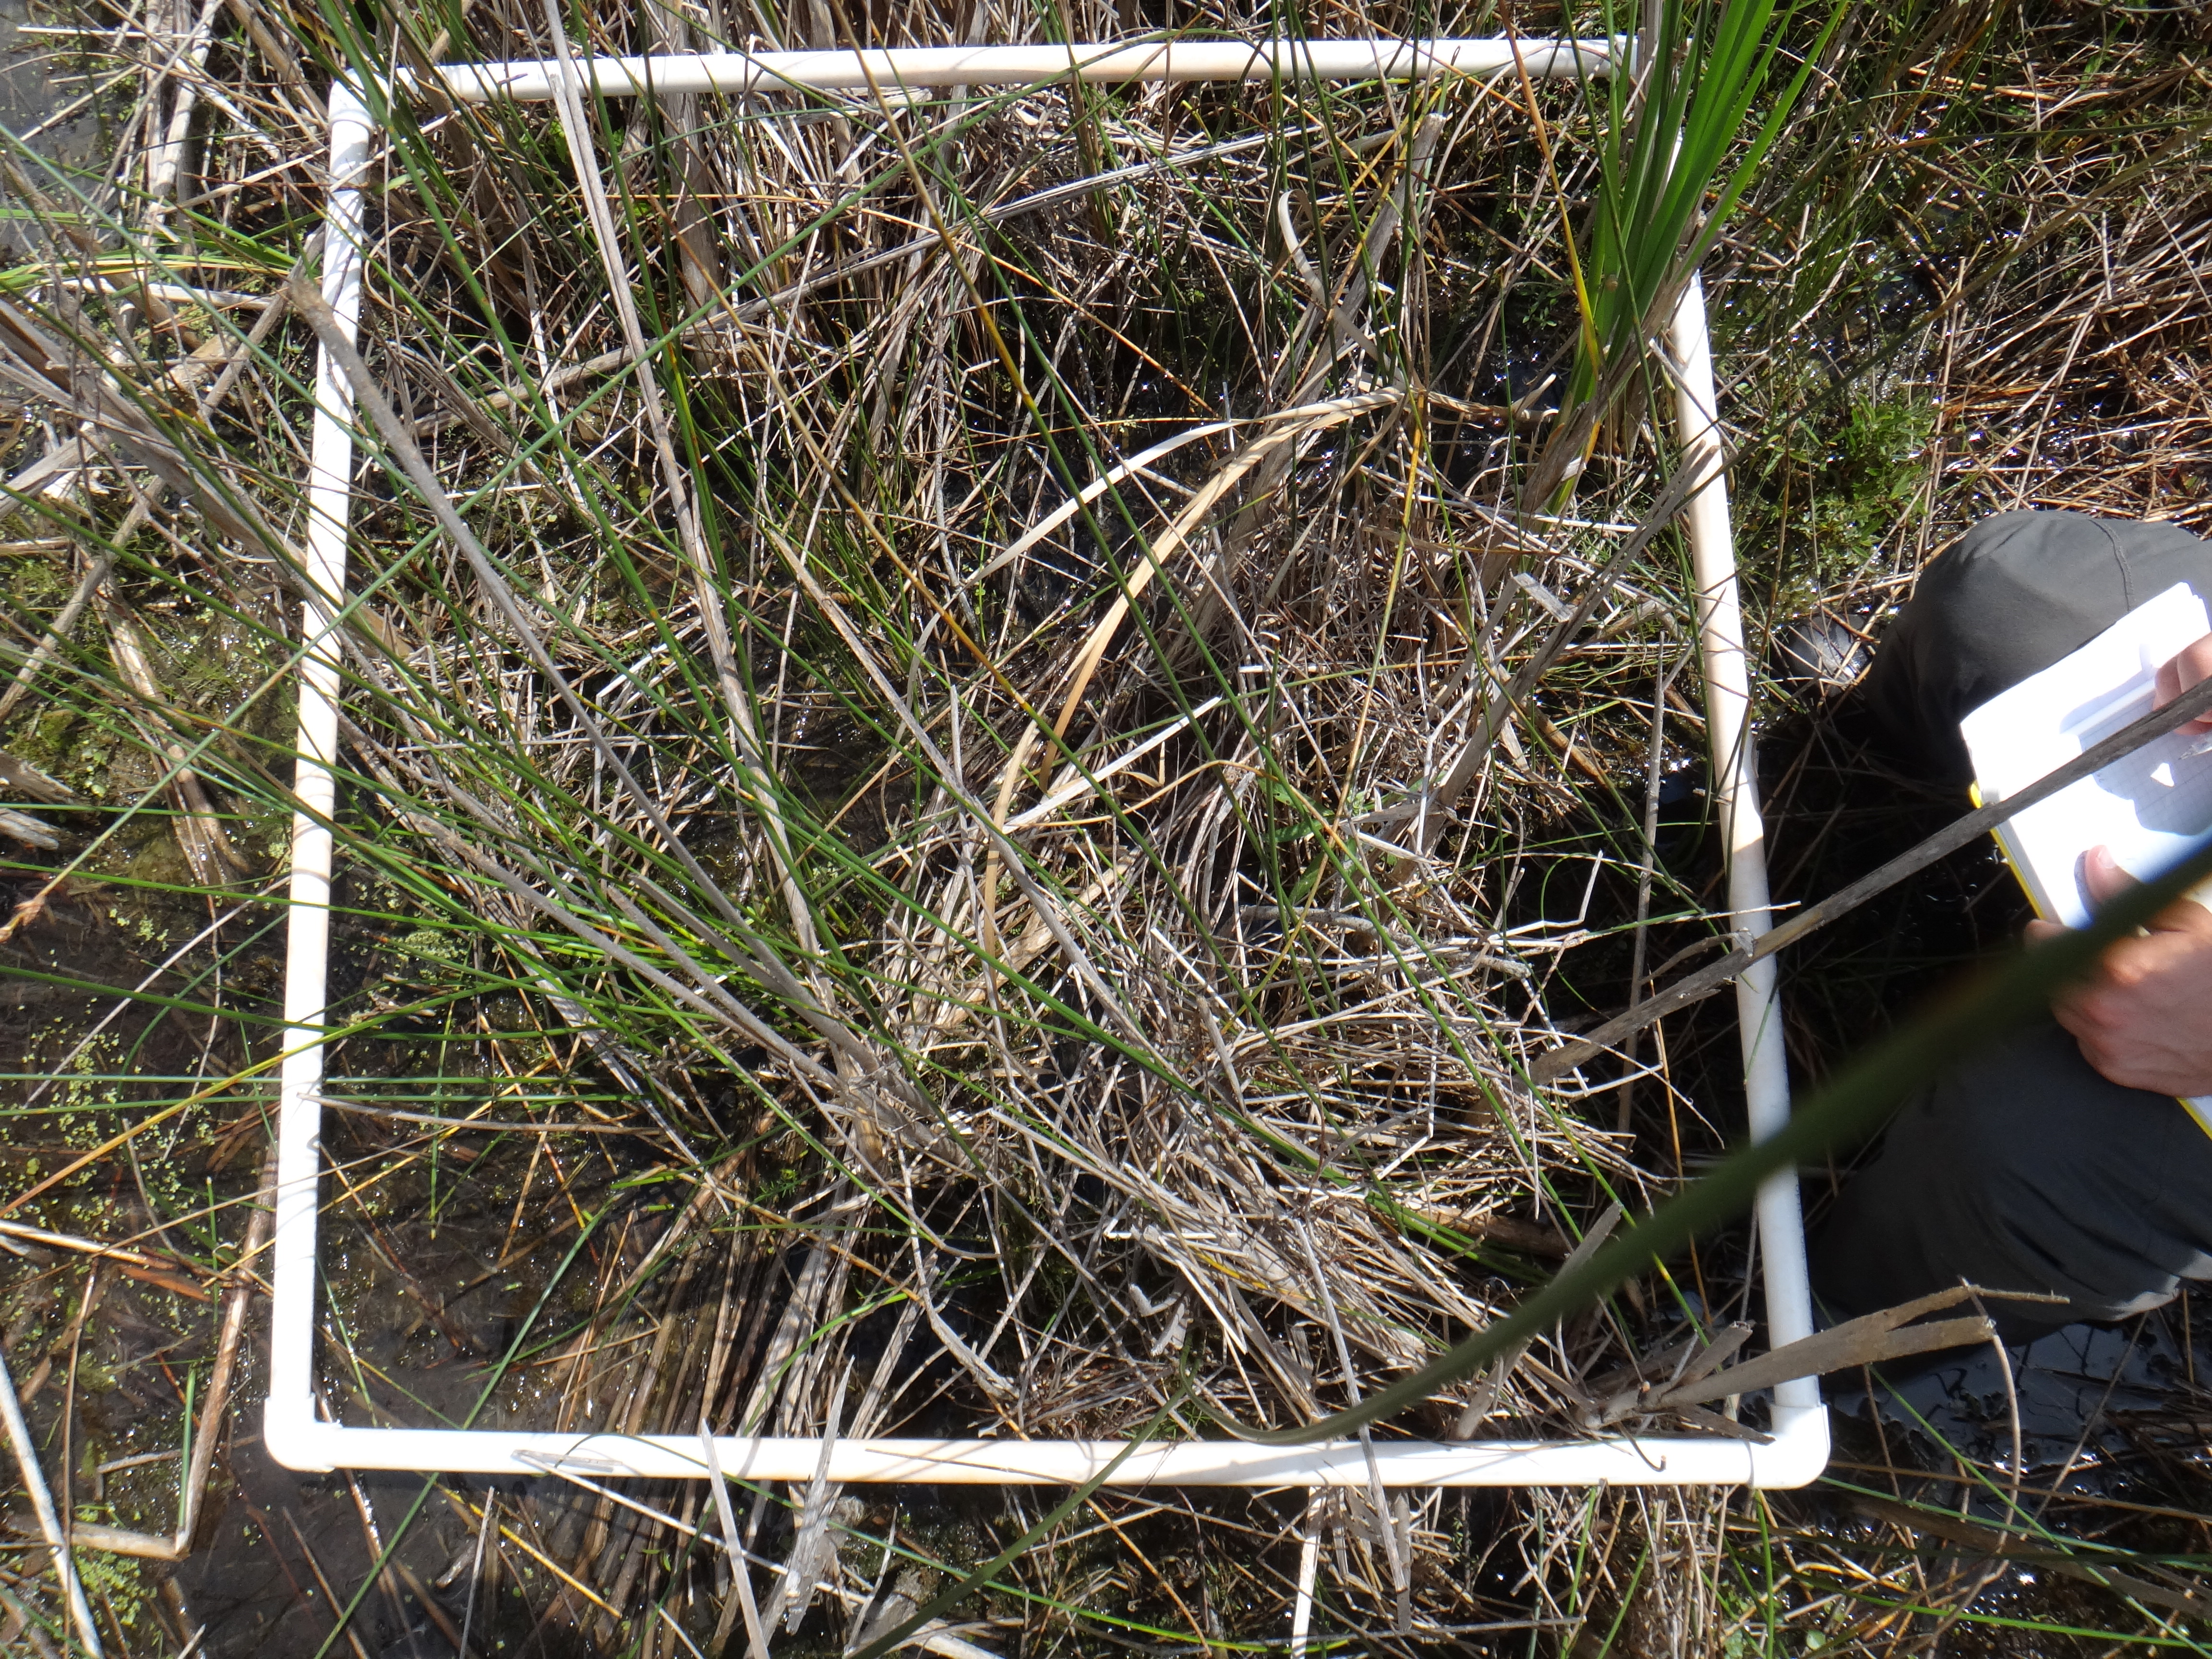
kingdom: Plantae
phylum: Tracheophyta
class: Magnoliopsida
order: Asterales
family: Campanulaceae
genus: Palustricodon
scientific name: Palustricodon aparinoides
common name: Bedstraw bellflower
